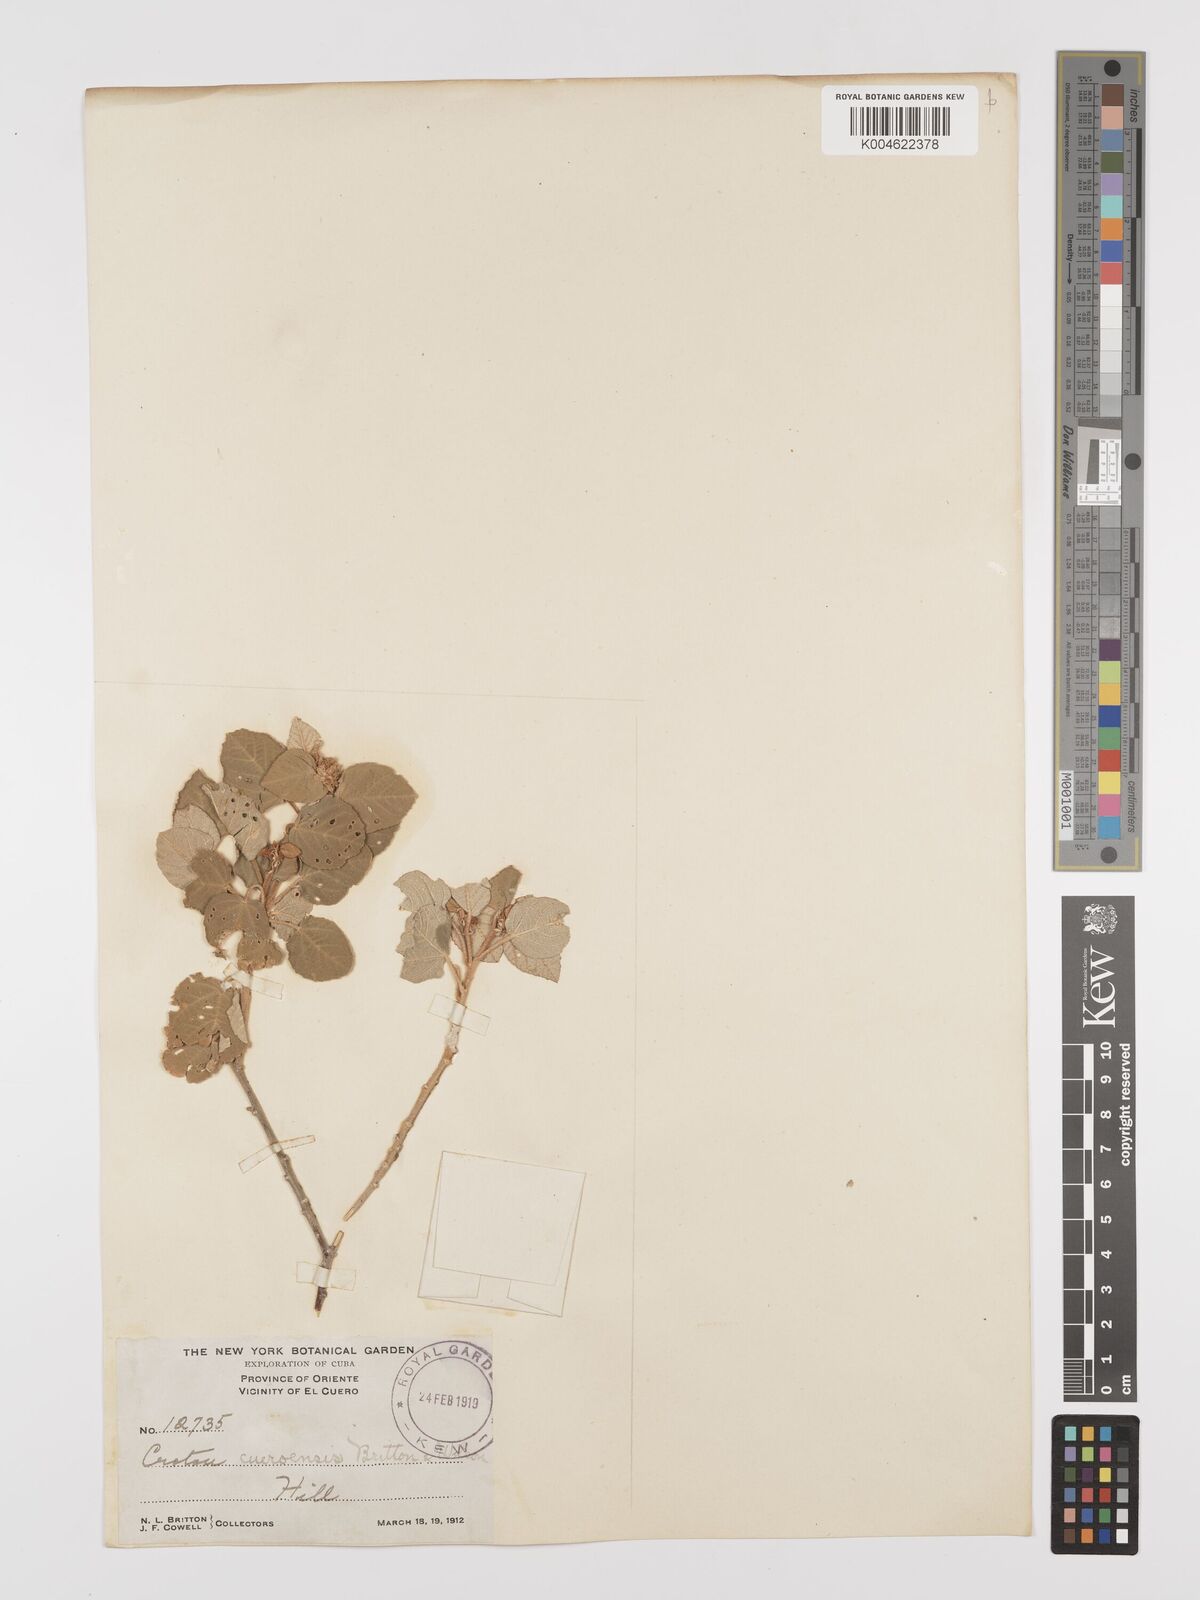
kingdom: Plantae
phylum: Tracheophyta
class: Magnoliopsida
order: Malpighiales
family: Euphorbiaceae
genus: Croton
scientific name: Croton spiralis
